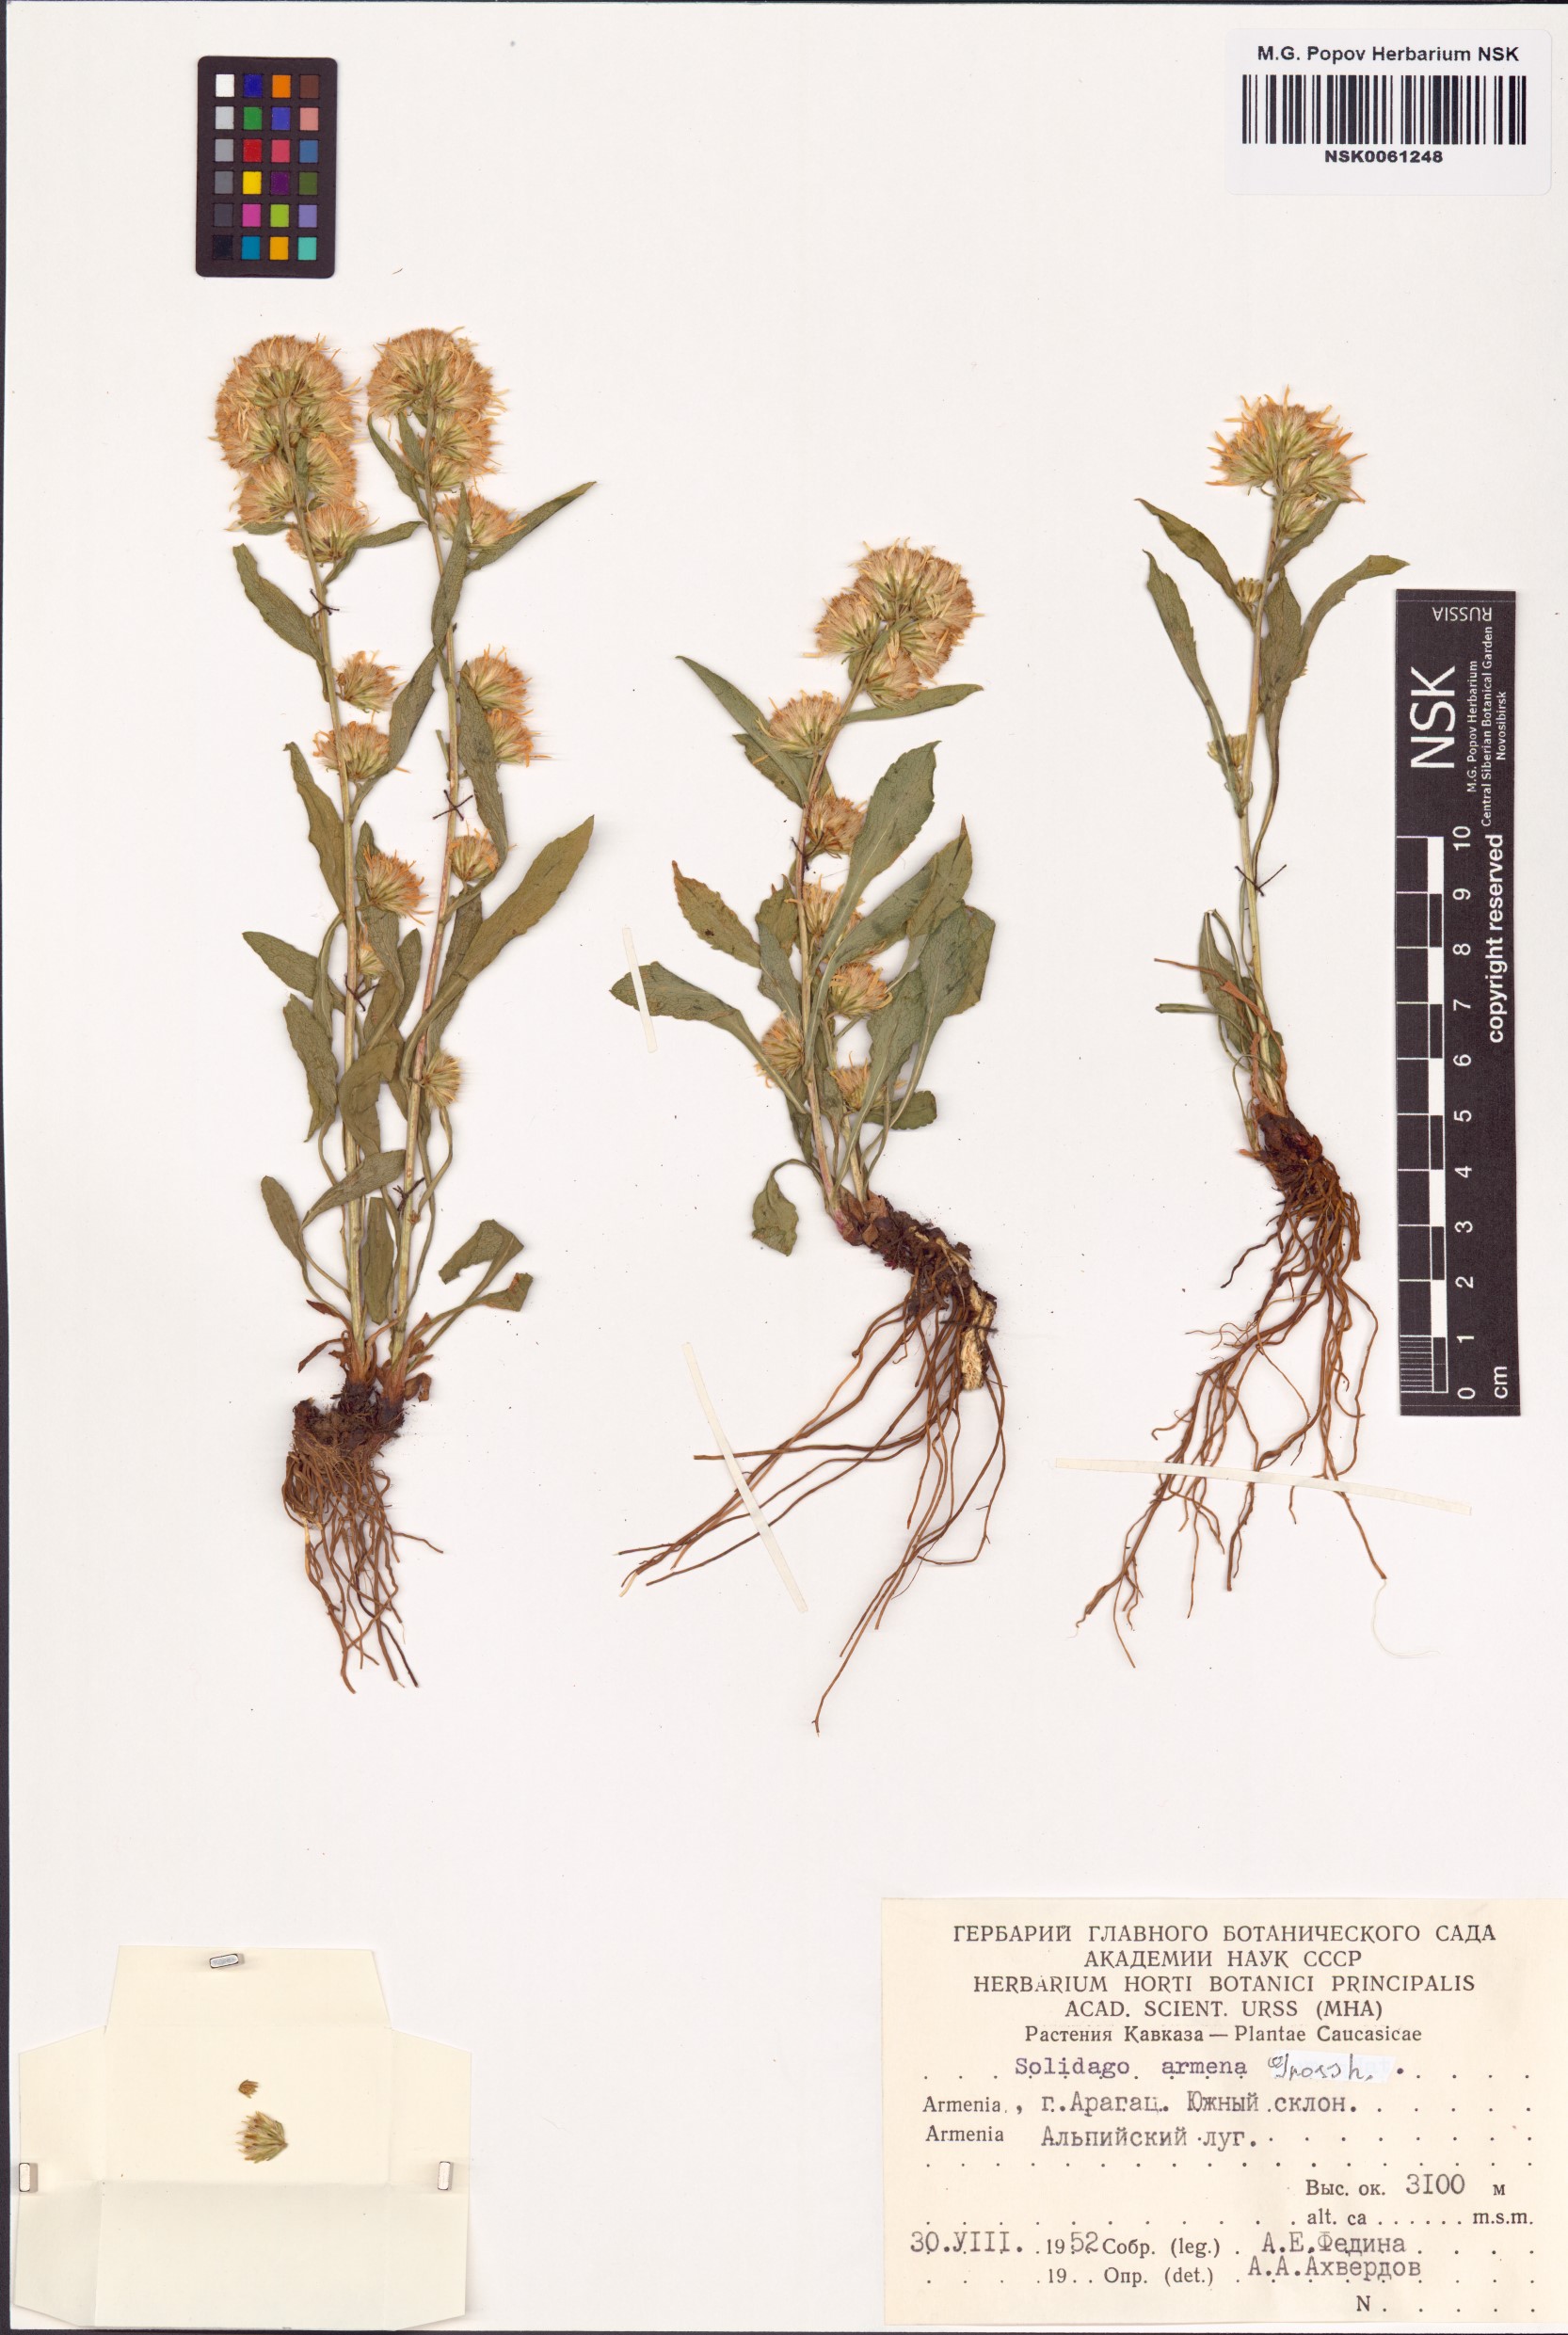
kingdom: Plantae
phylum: Tracheophyta
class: Magnoliopsida
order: Asterales
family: Asteraceae
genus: Solidago
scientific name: Solidago virgaurea
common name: Goldenrod
